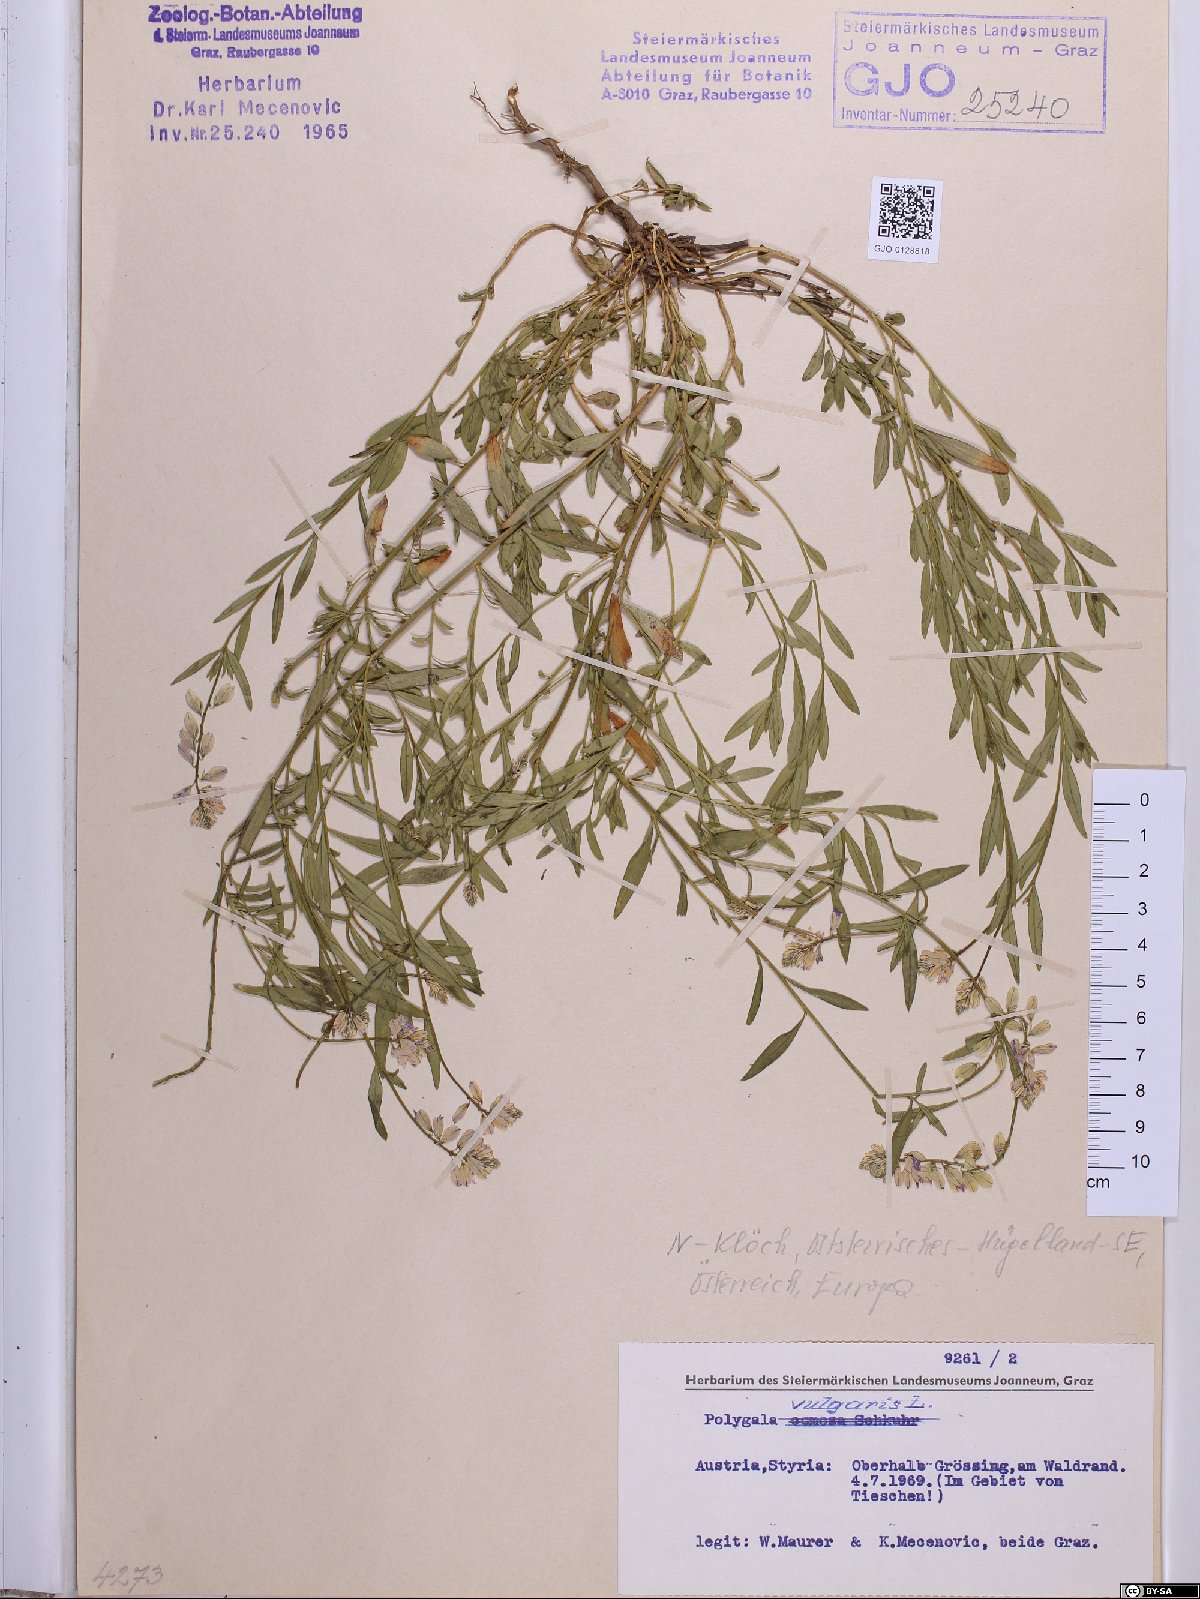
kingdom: Plantae
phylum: Tracheophyta
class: Magnoliopsida
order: Fabales
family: Polygalaceae
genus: Polygala
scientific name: Polygala vulgaris
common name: Common milkwort
